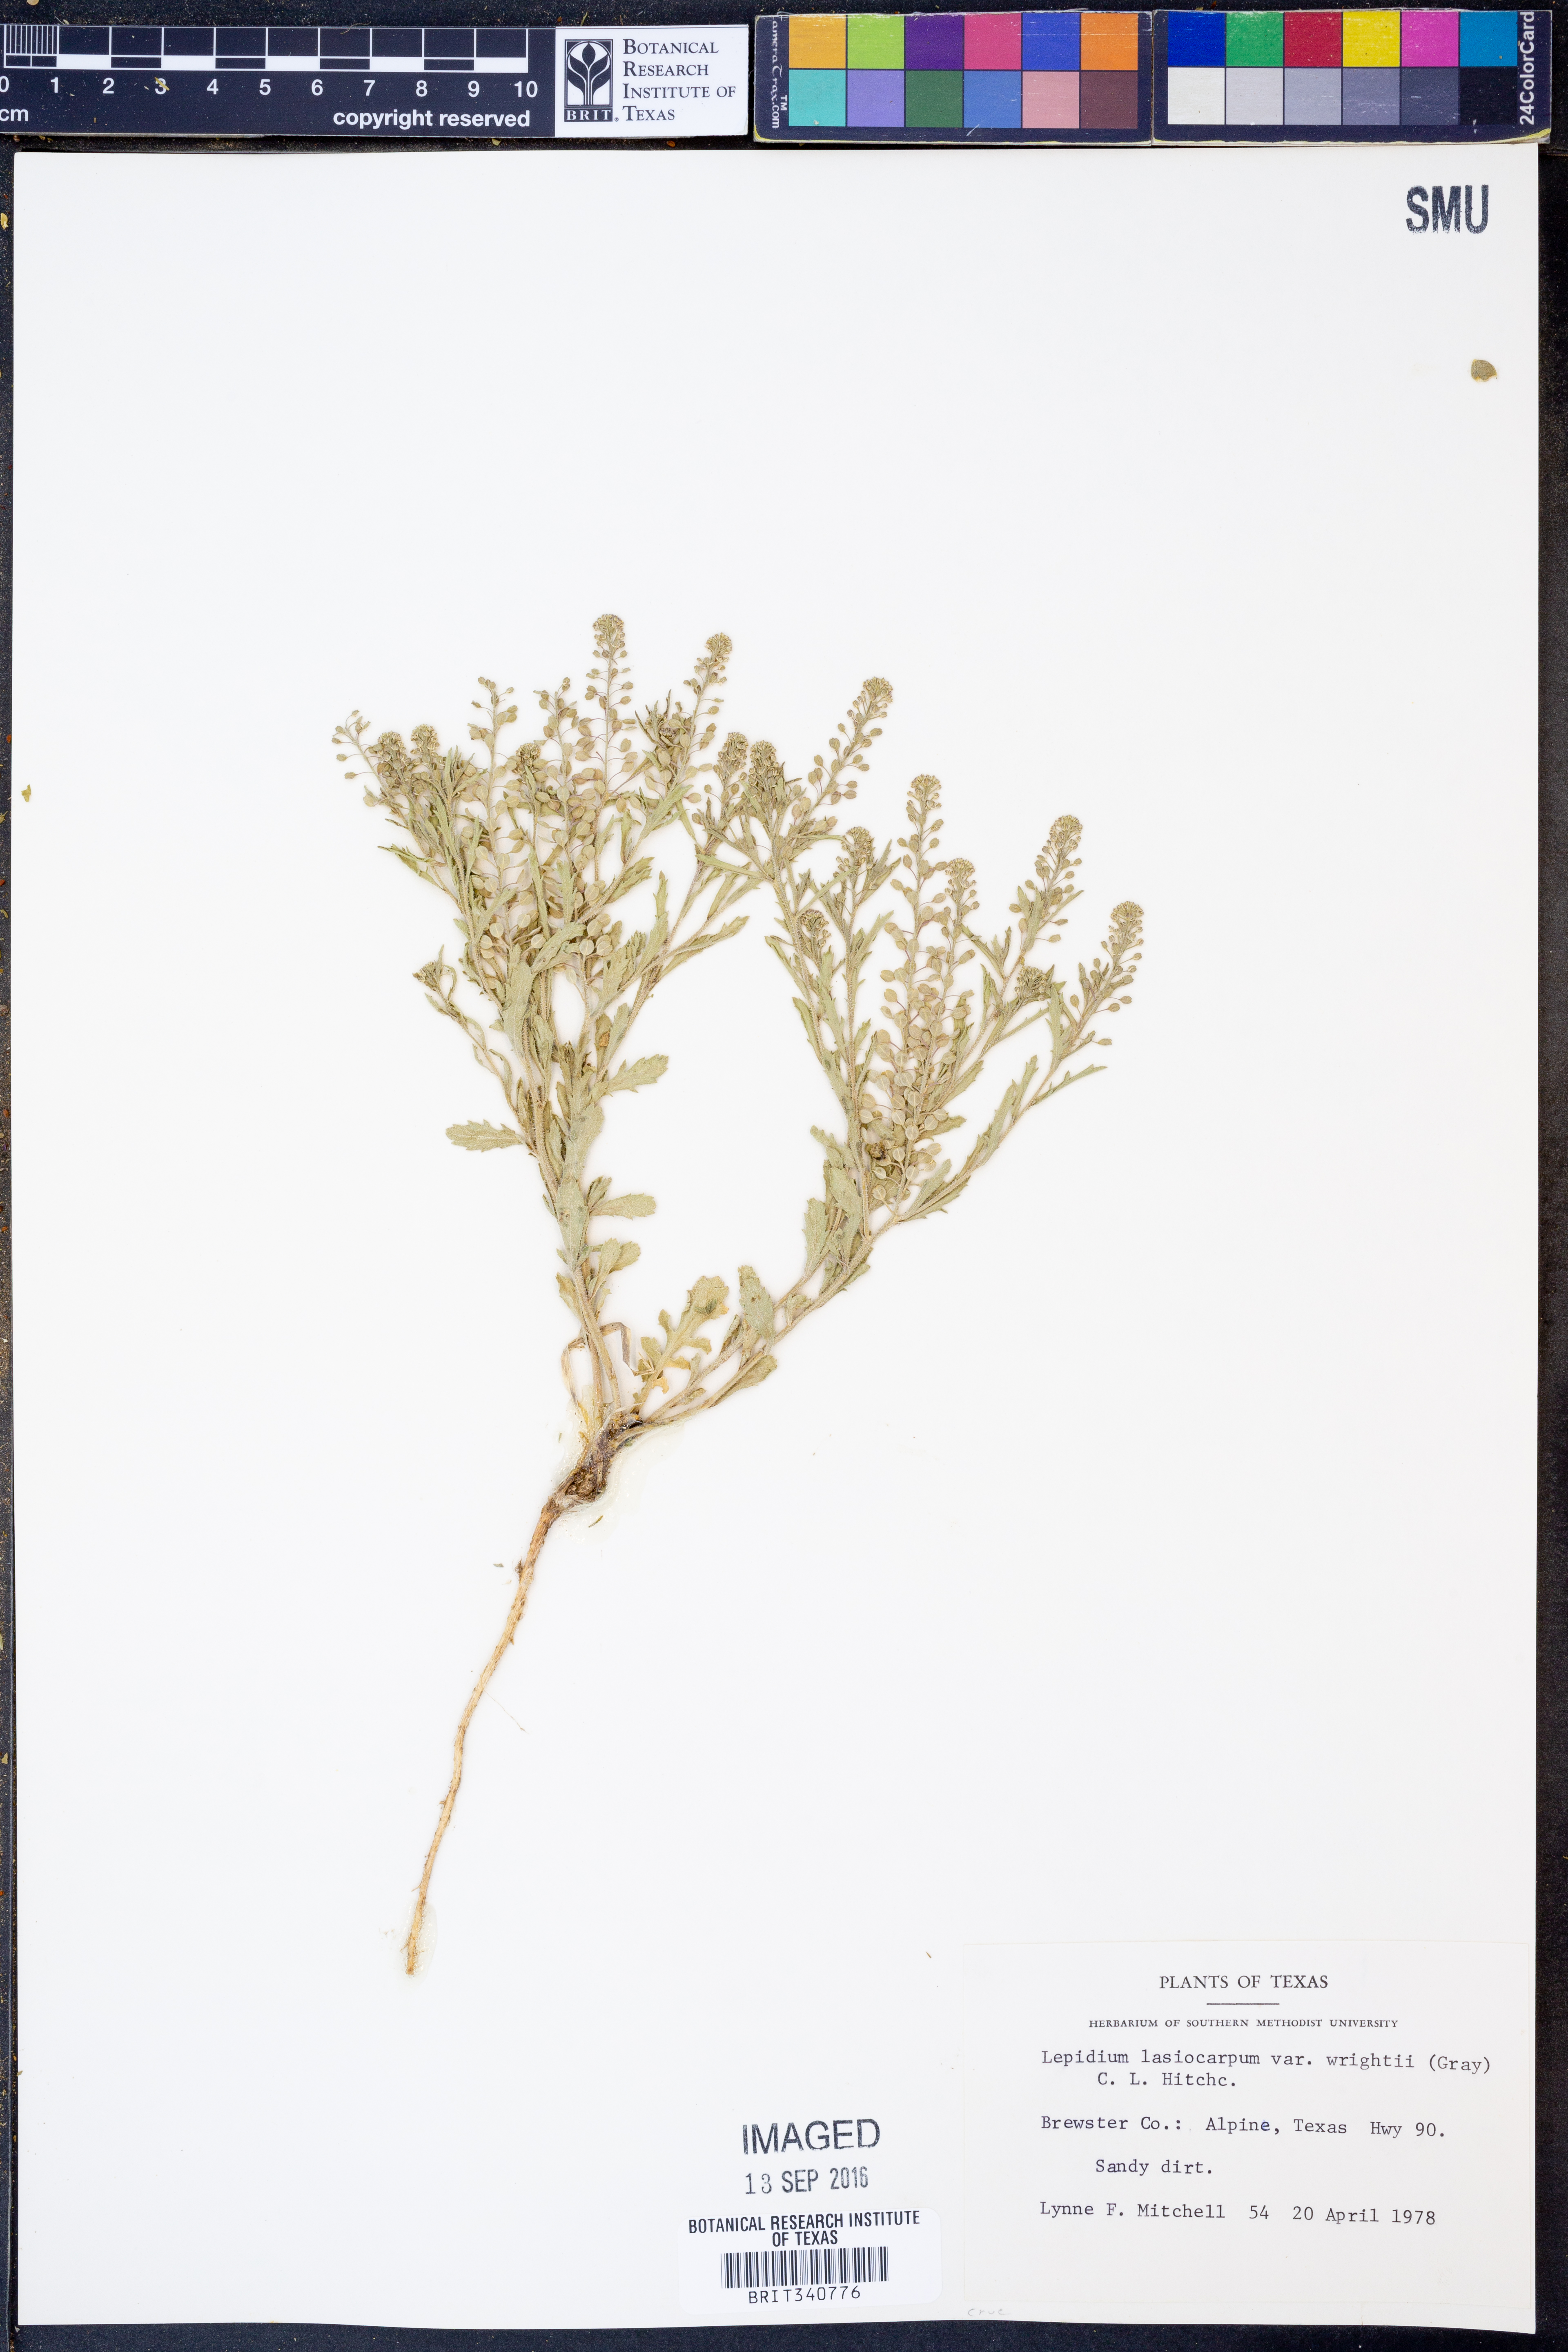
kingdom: Plantae
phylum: Tracheophyta
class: Magnoliopsida
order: Brassicales
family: Brassicaceae
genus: Lepidium
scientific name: Lepidium lasiocarpum
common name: Hairy-pod pepperwort
